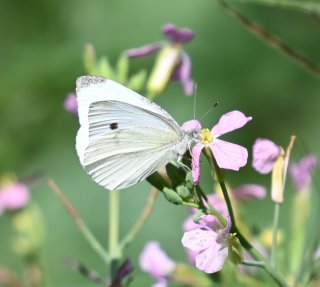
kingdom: Animalia
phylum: Arthropoda
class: Insecta
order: Lepidoptera
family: Pieridae
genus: Pieris
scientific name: Pieris rapae
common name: Cabbage White
